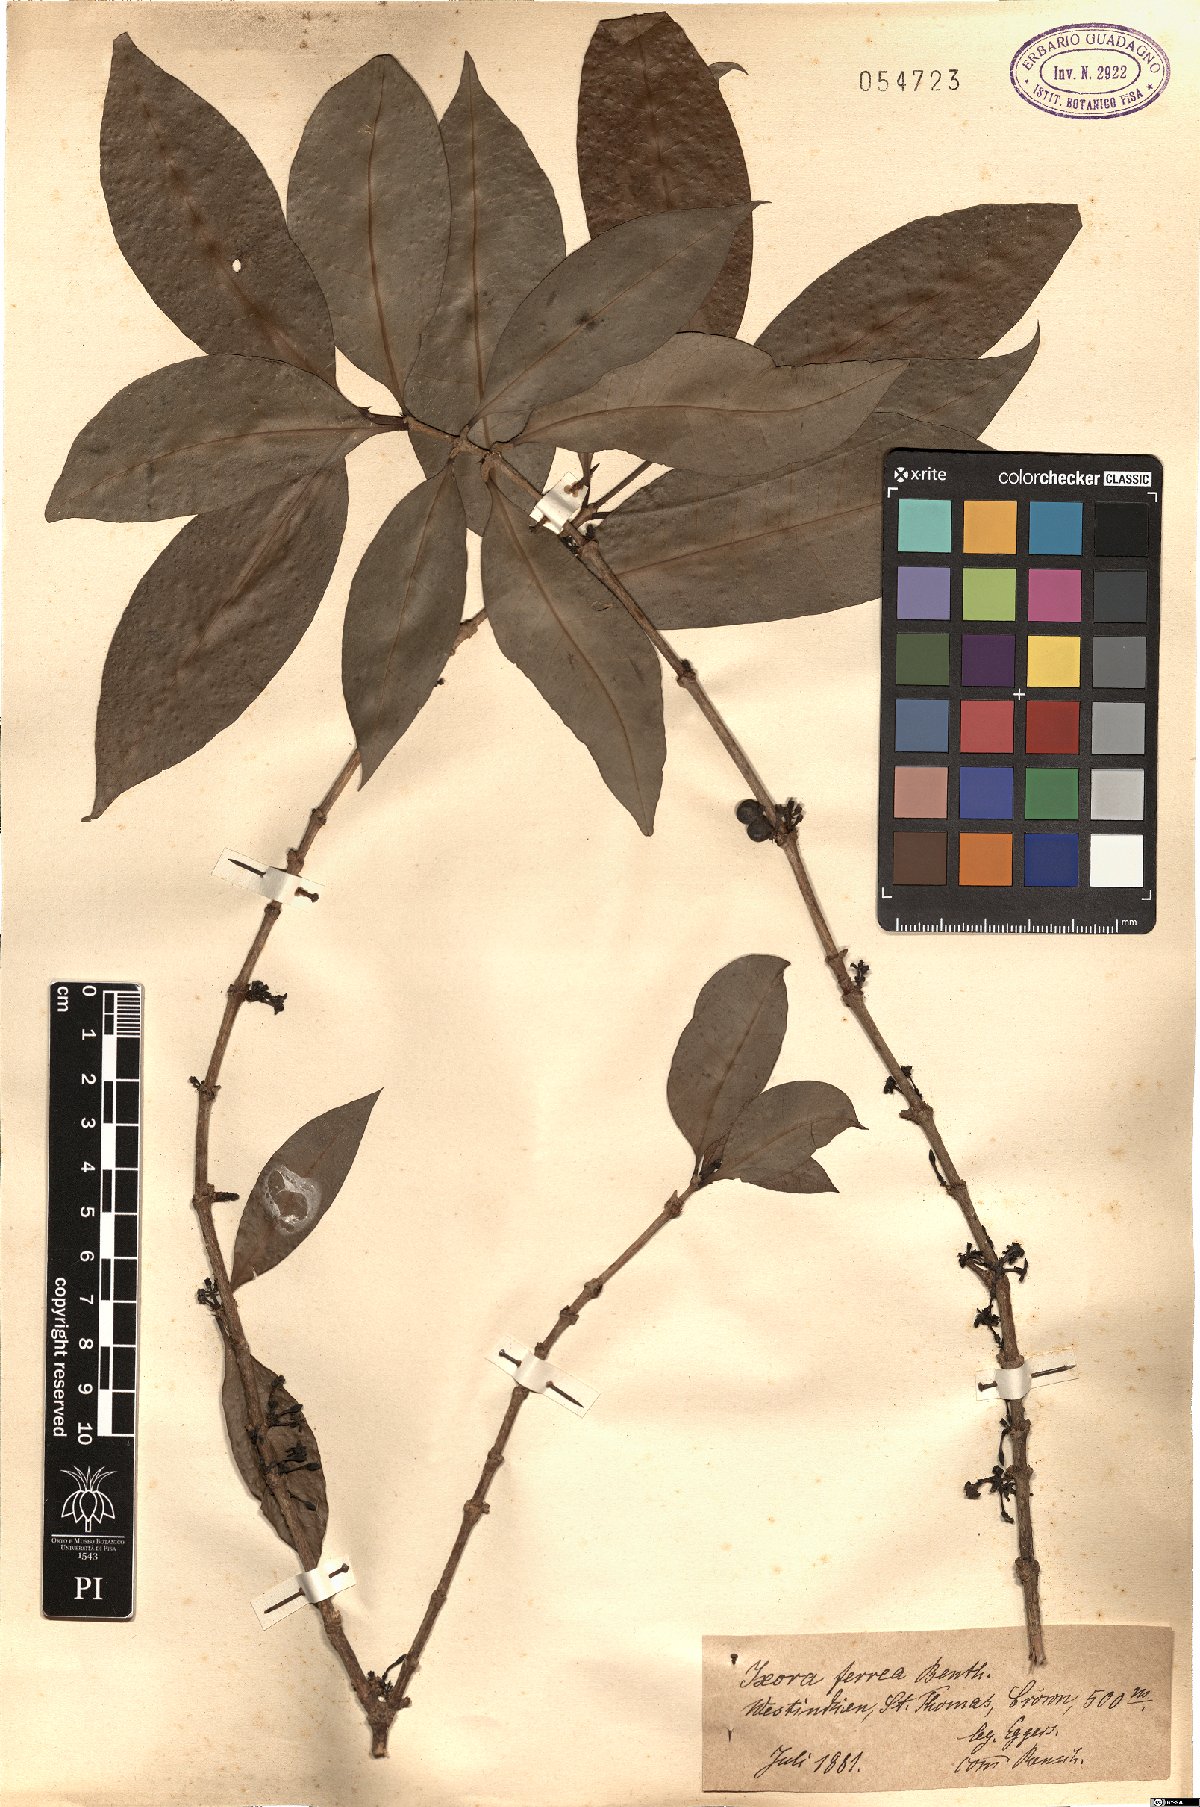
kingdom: Plantae
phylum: Tracheophyta
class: Magnoliopsida
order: Gentianales
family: Rubiaceae
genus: Ixora
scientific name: Ixora ferrea
